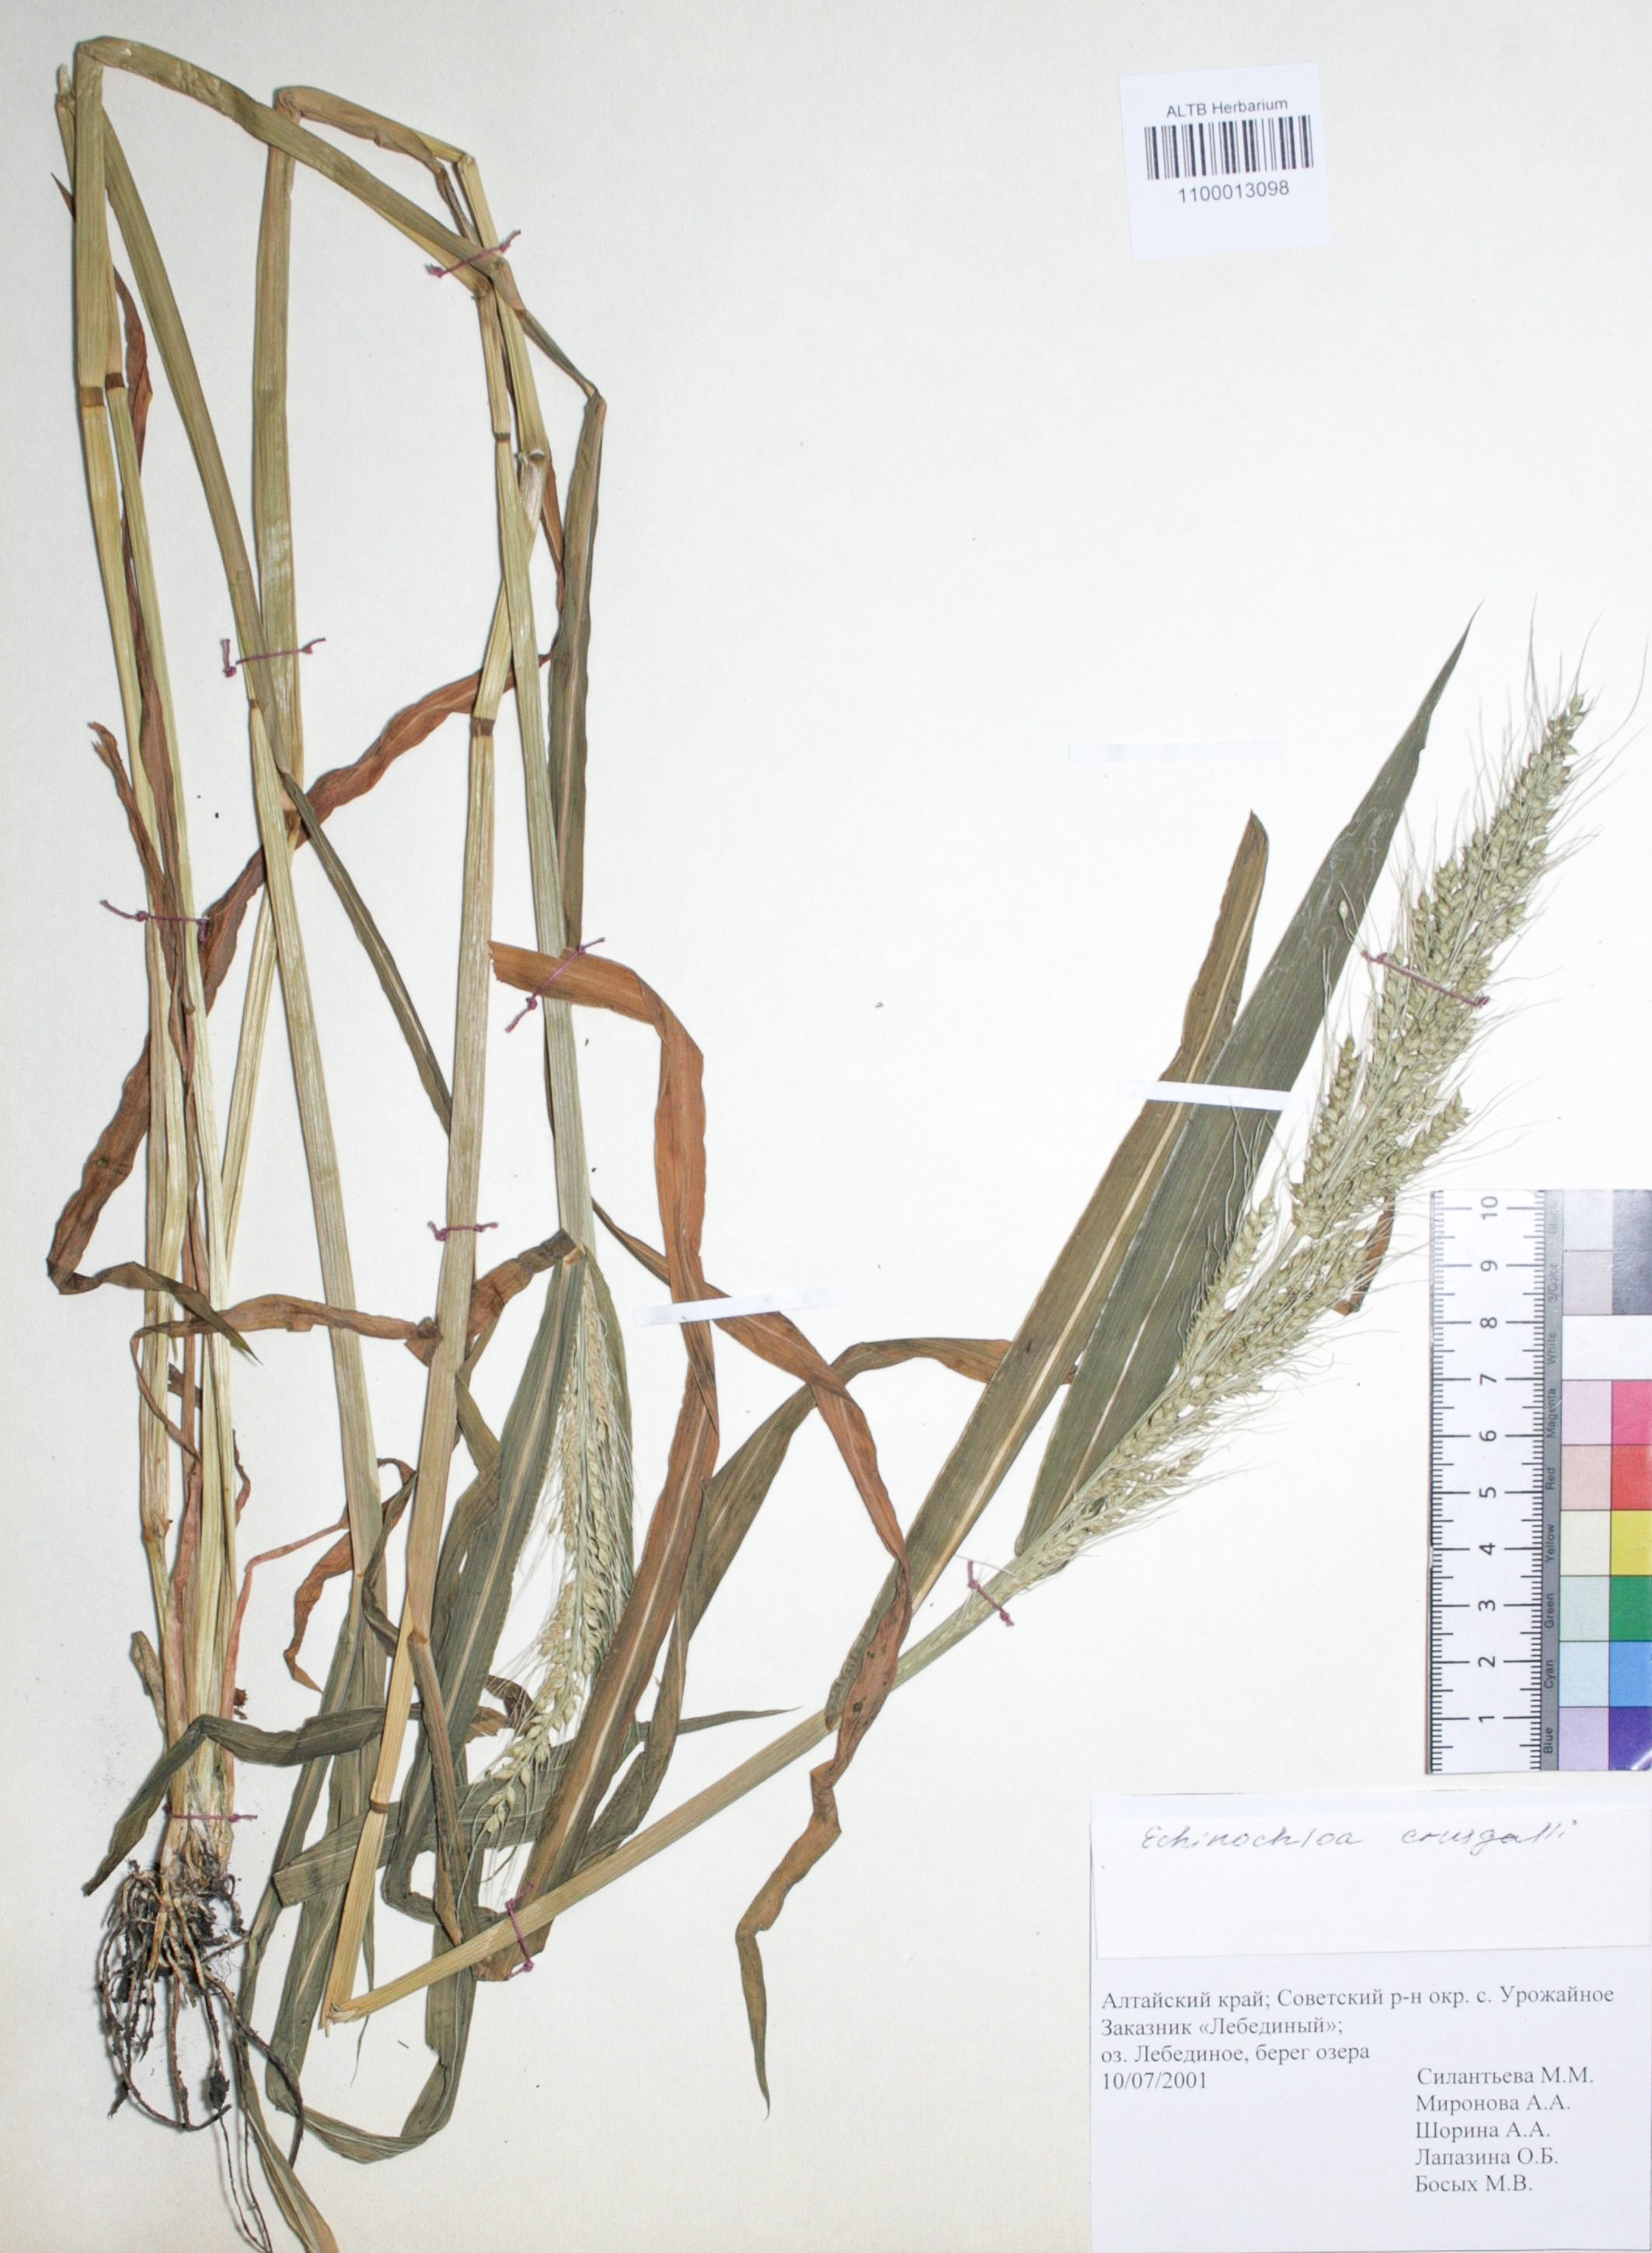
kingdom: Plantae
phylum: Tracheophyta
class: Liliopsida
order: Poales
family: Poaceae
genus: Echinochloa
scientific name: Echinochloa crus-galli
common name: Cockspur
